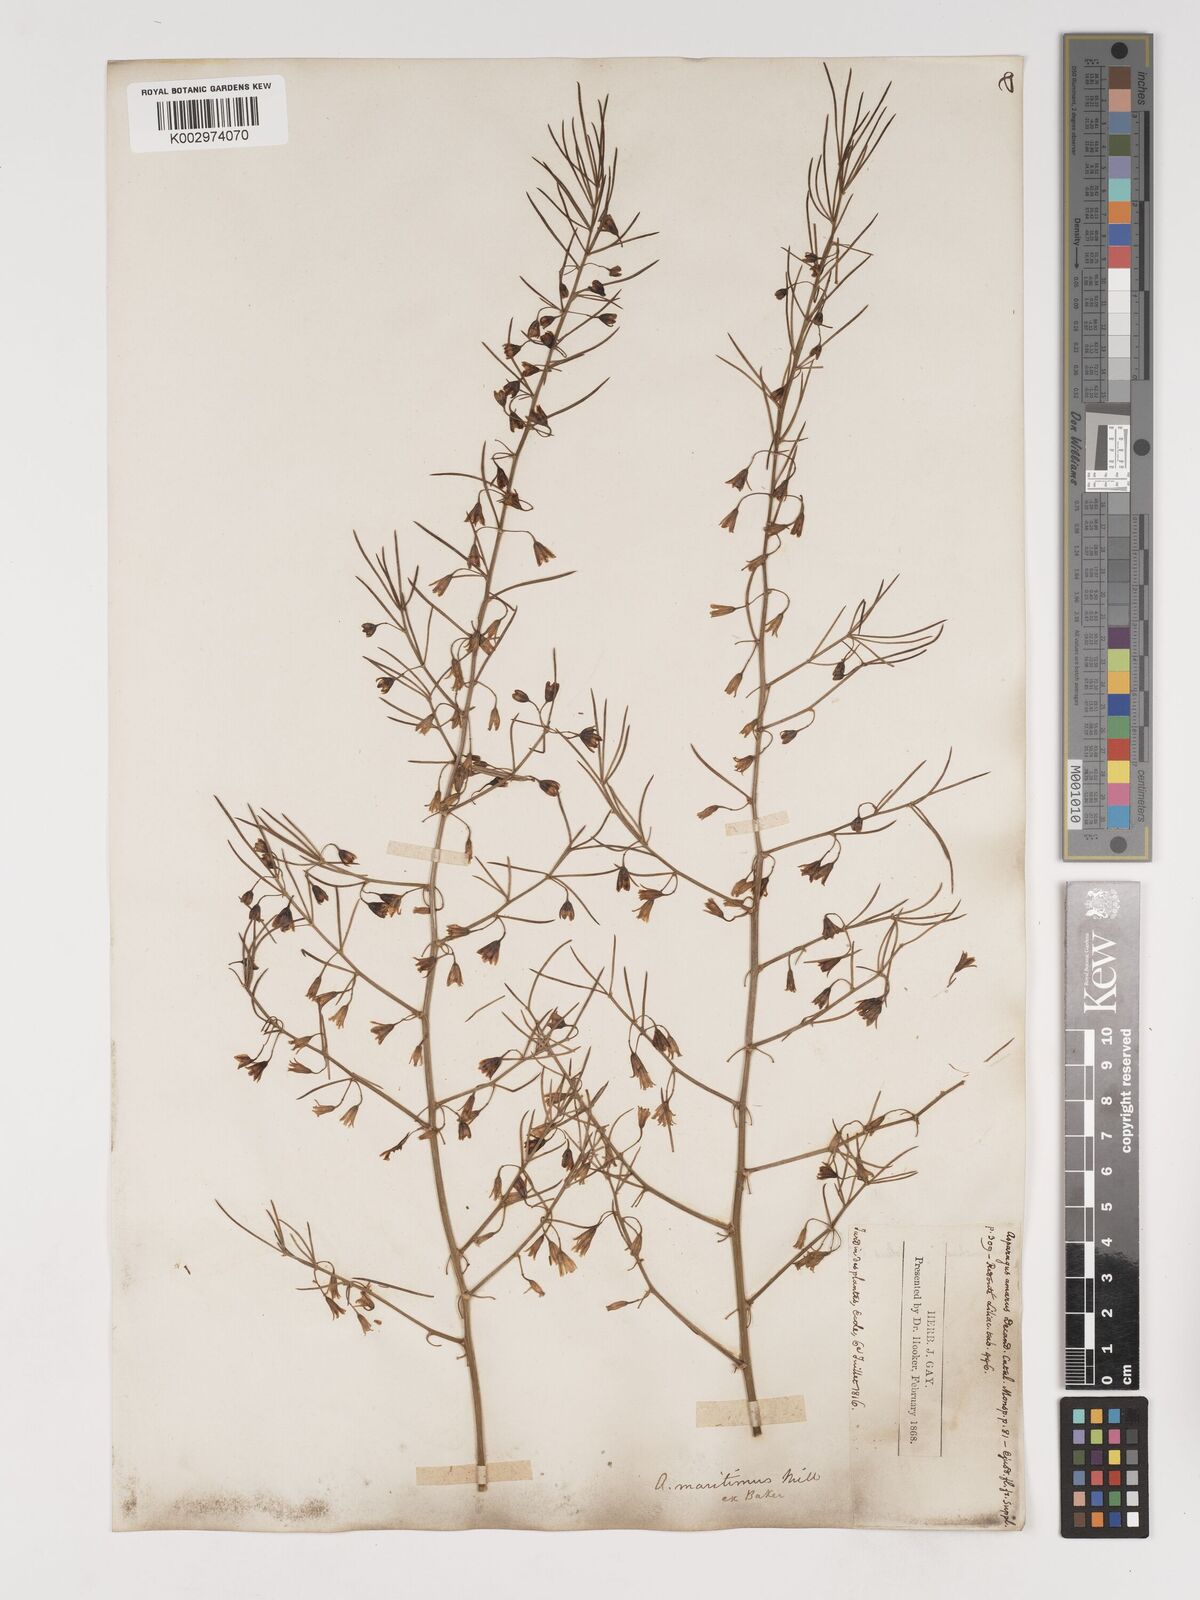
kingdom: Plantae
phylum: Tracheophyta
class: Liliopsida
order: Asparagales
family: Asparagaceae
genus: Asparagus
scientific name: Asparagus maritimus
